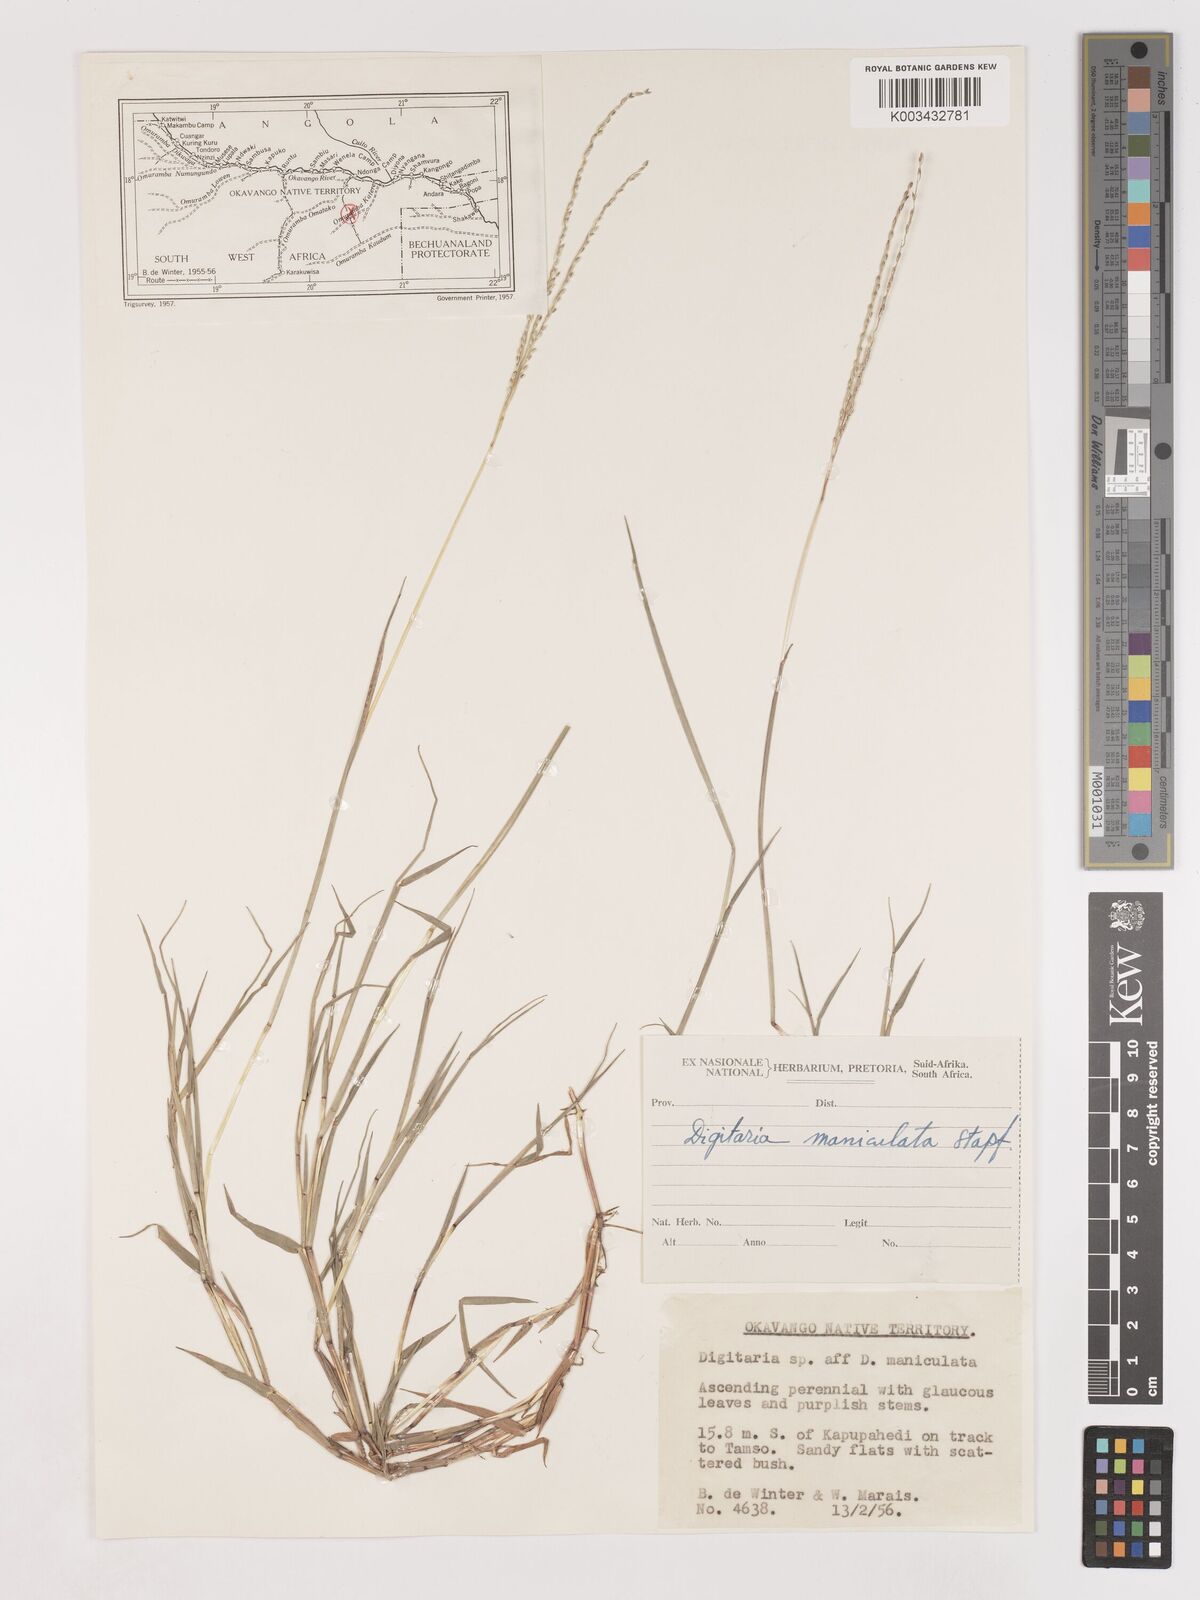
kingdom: Plantae
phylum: Tracheophyta
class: Liliopsida
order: Poales
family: Poaceae
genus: Digitaria
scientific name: Digitaria maniculata
